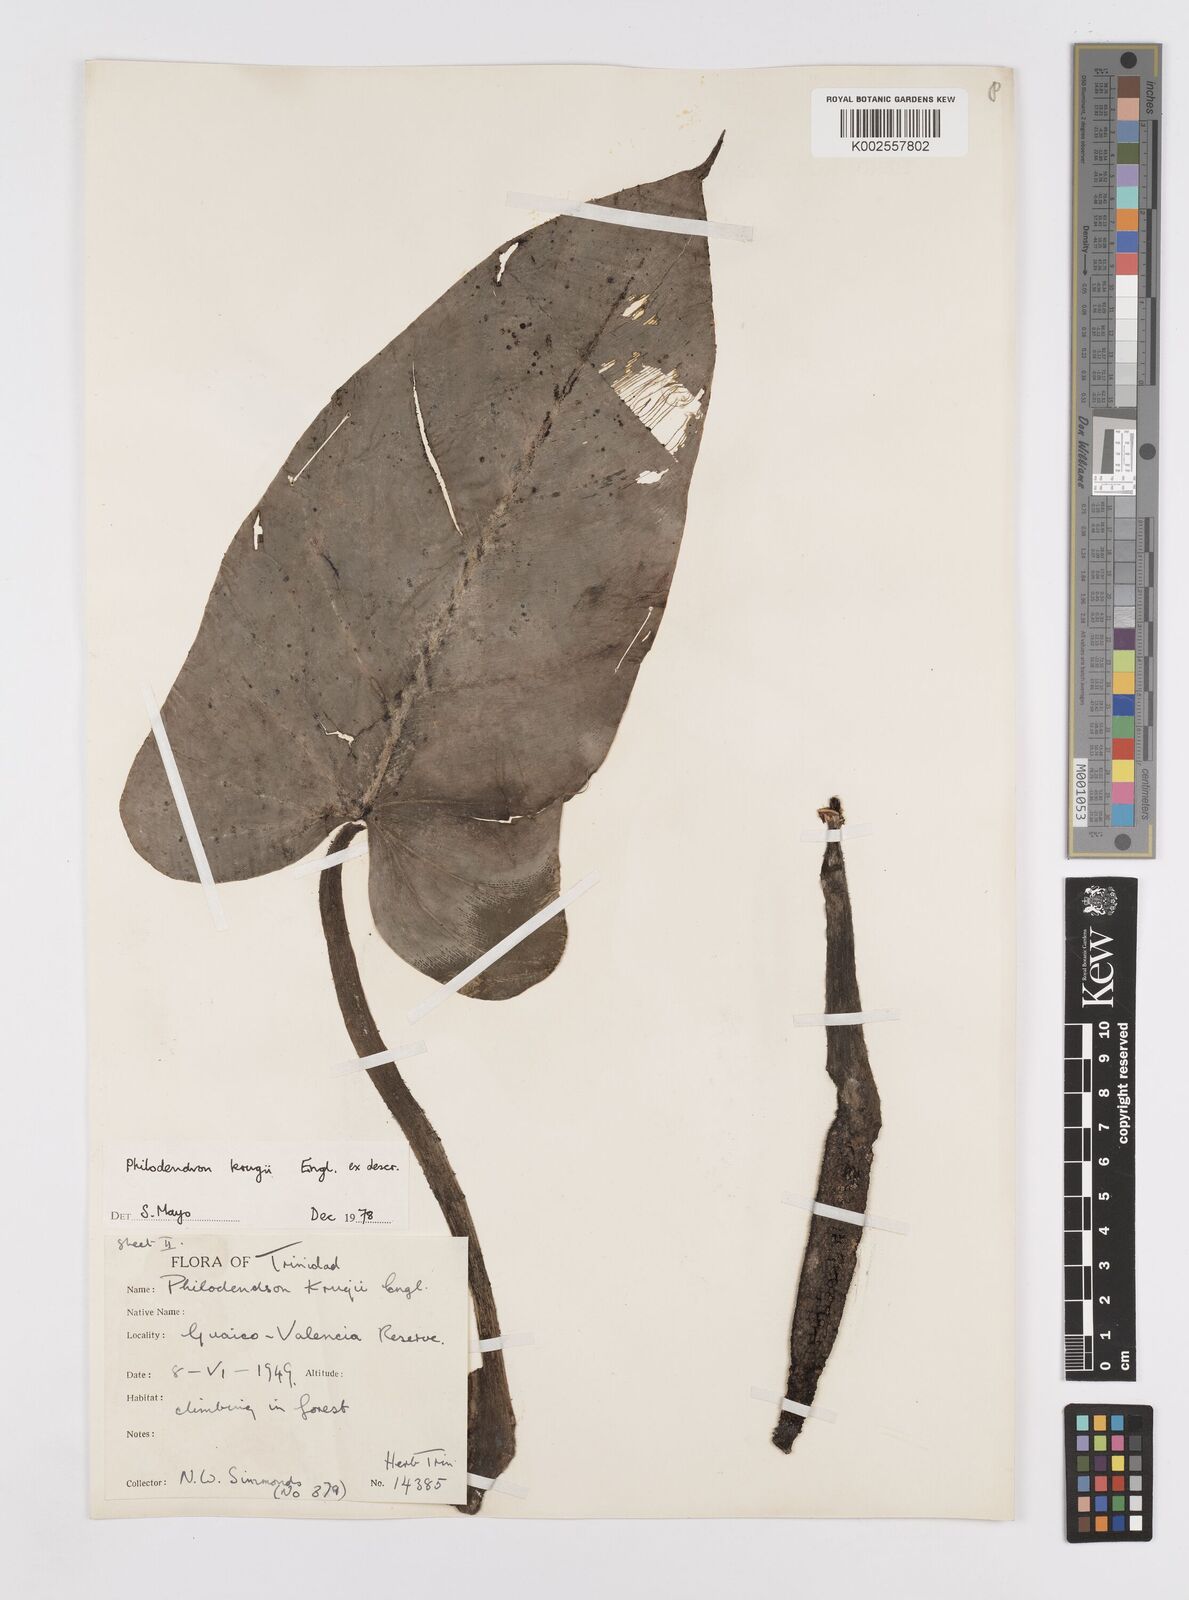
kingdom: Plantae
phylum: Tracheophyta
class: Liliopsida
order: Alismatales
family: Araceae
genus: Philodendron
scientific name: Philodendron krugii
